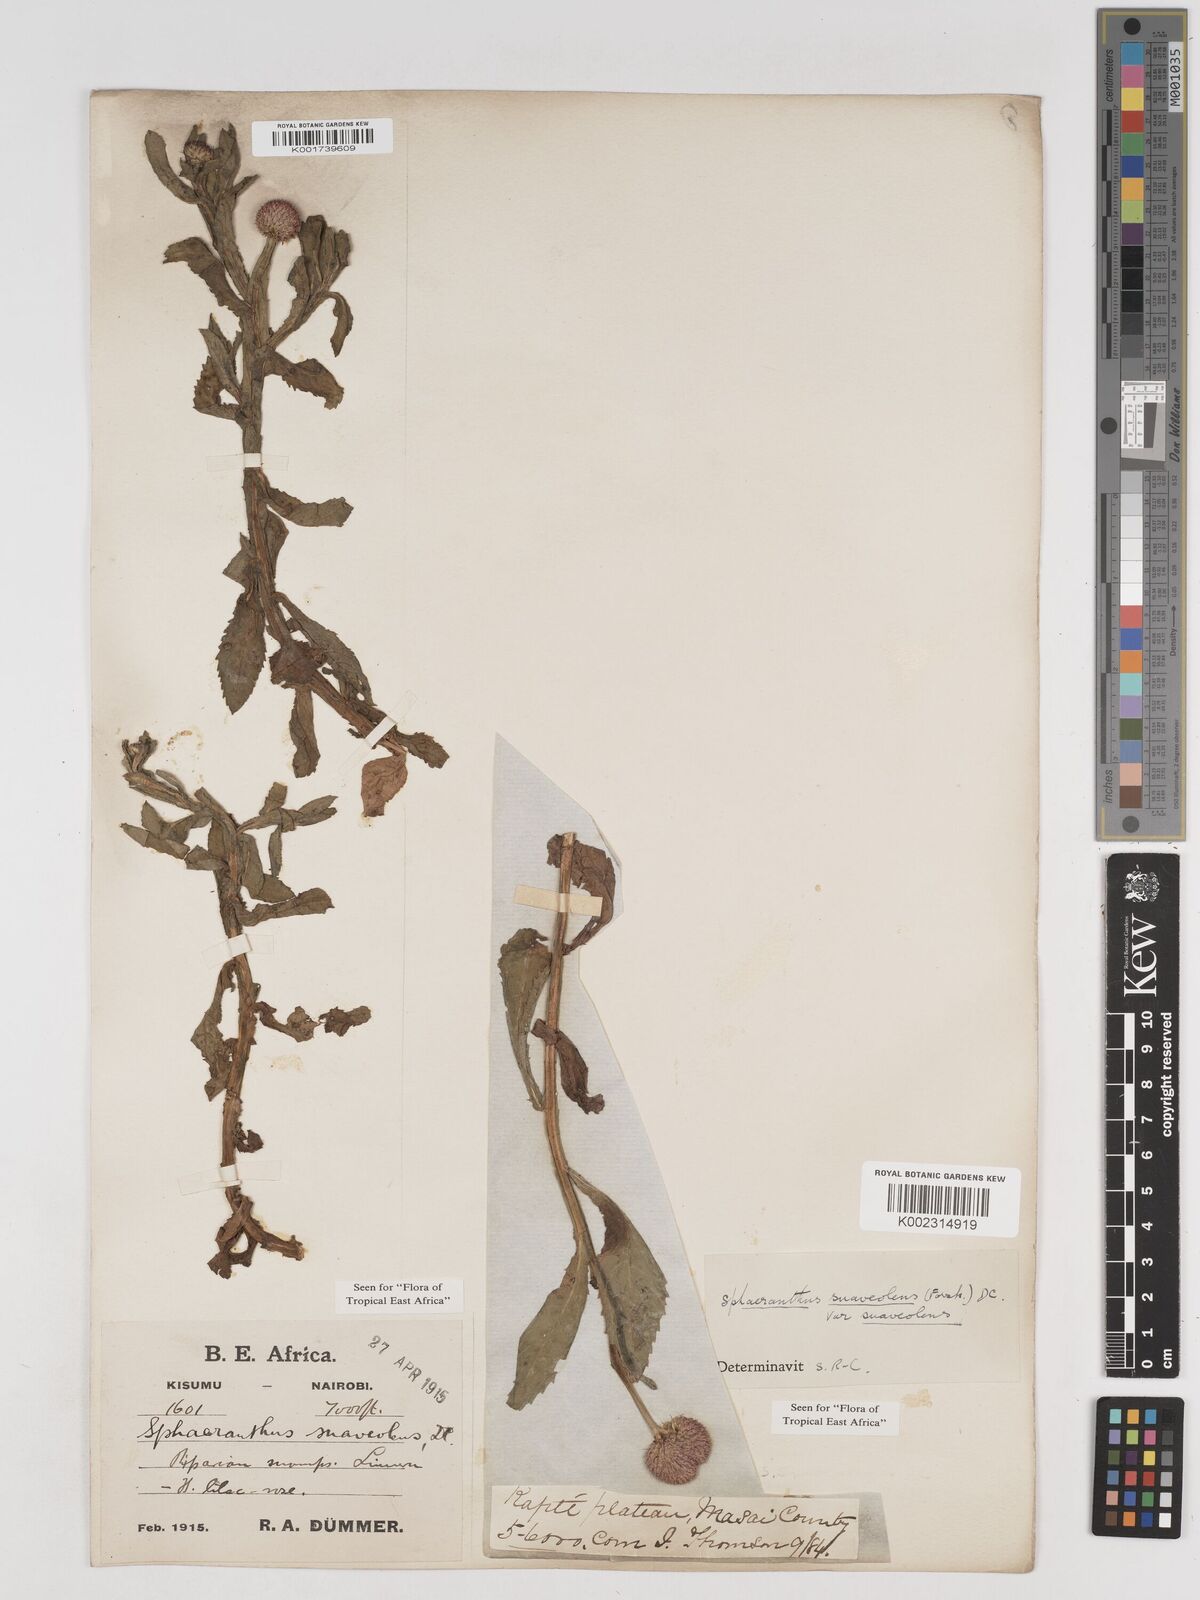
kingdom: Plantae
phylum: Tracheophyta
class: Magnoliopsida
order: Asterales
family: Asteraceae
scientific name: Asteraceae
